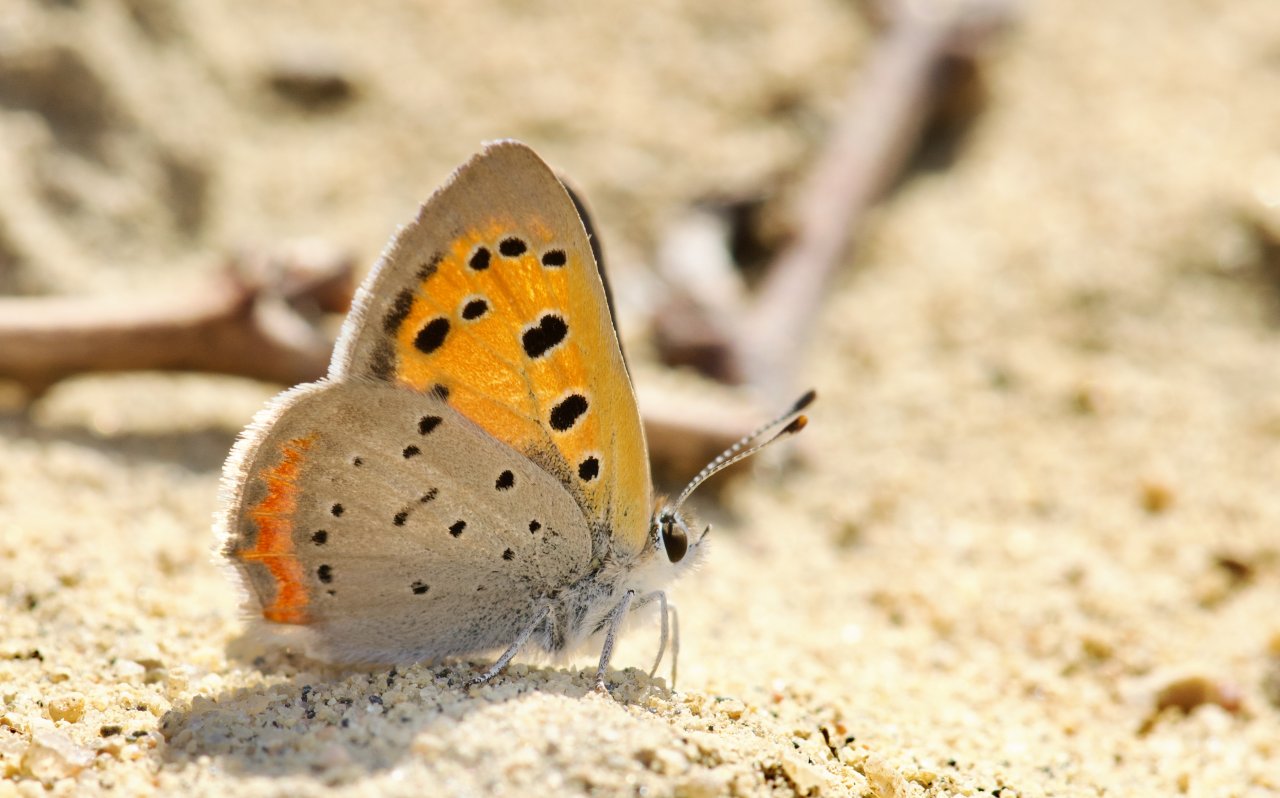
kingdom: Animalia
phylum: Arthropoda
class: Insecta
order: Lepidoptera
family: Lycaenidae
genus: Lycaena
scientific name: Lycaena phlaeas
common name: American Copper
